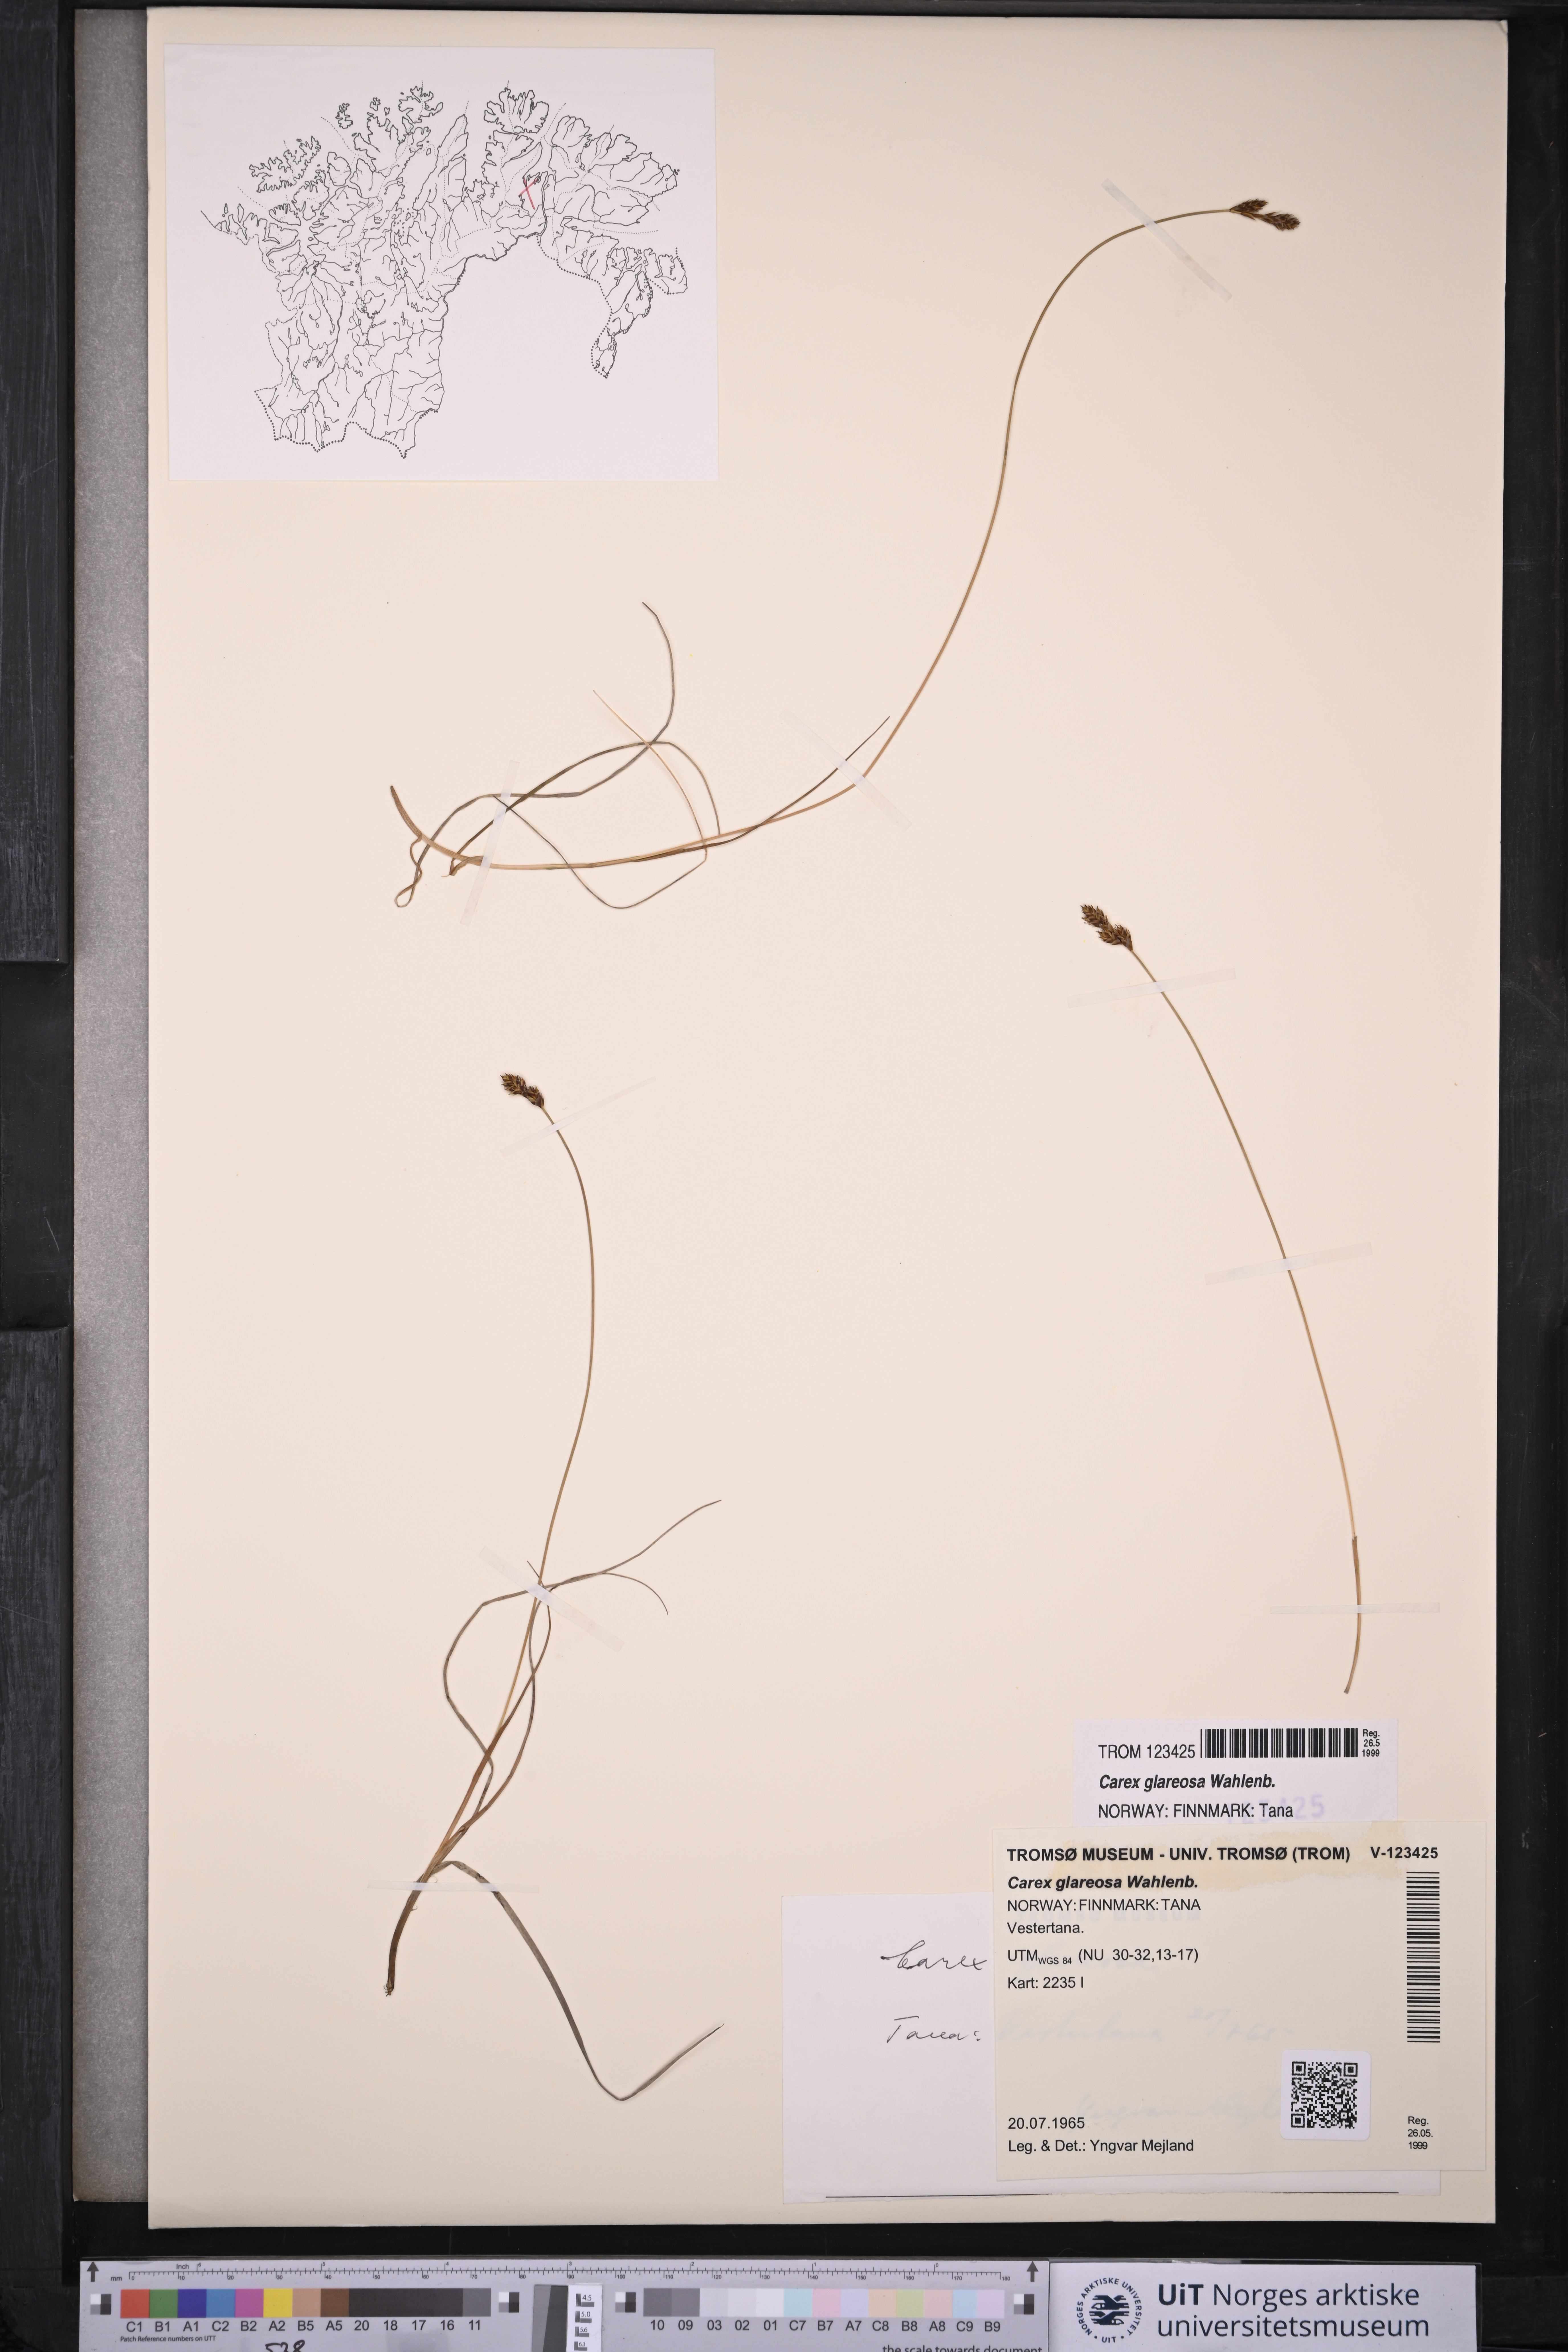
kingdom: Plantae
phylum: Tracheophyta
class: Liliopsida
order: Poales
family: Cyperaceae
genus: Carex
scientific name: Carex glareosa
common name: Clustered sedge
